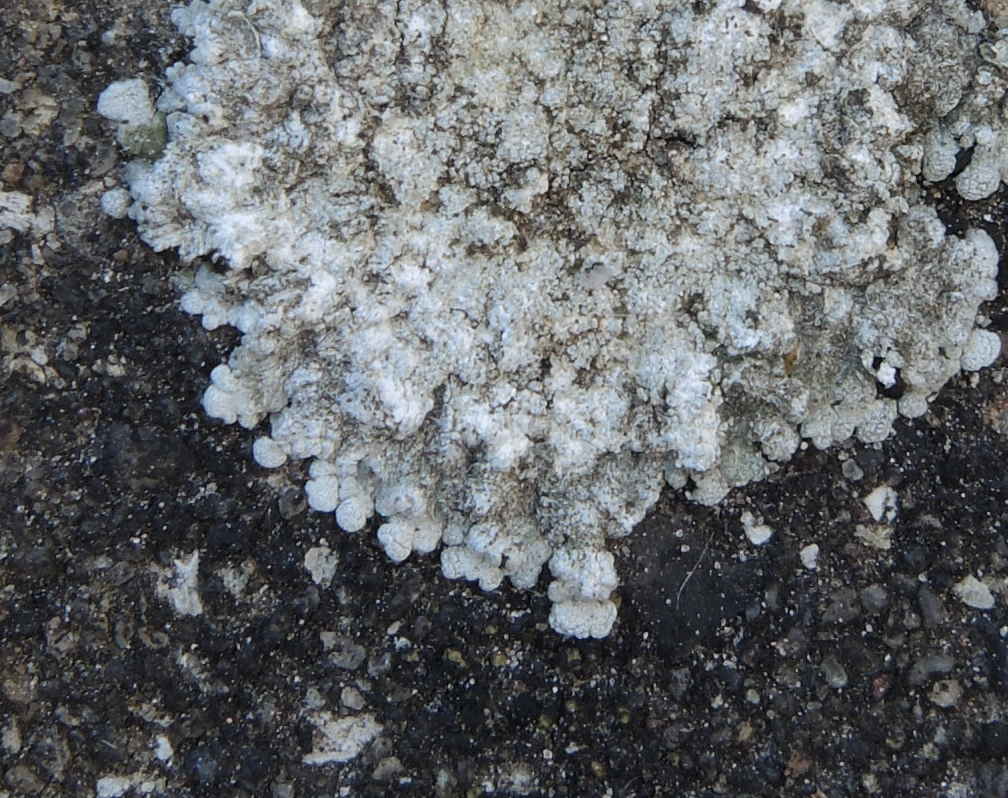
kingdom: Fungi
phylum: Ascomycota
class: Lecanoromycetes
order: Teloschistales
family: Teloschistaceae
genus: Kuettlingeria
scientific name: Kuettlingeria teicholyta
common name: grå orangelav
